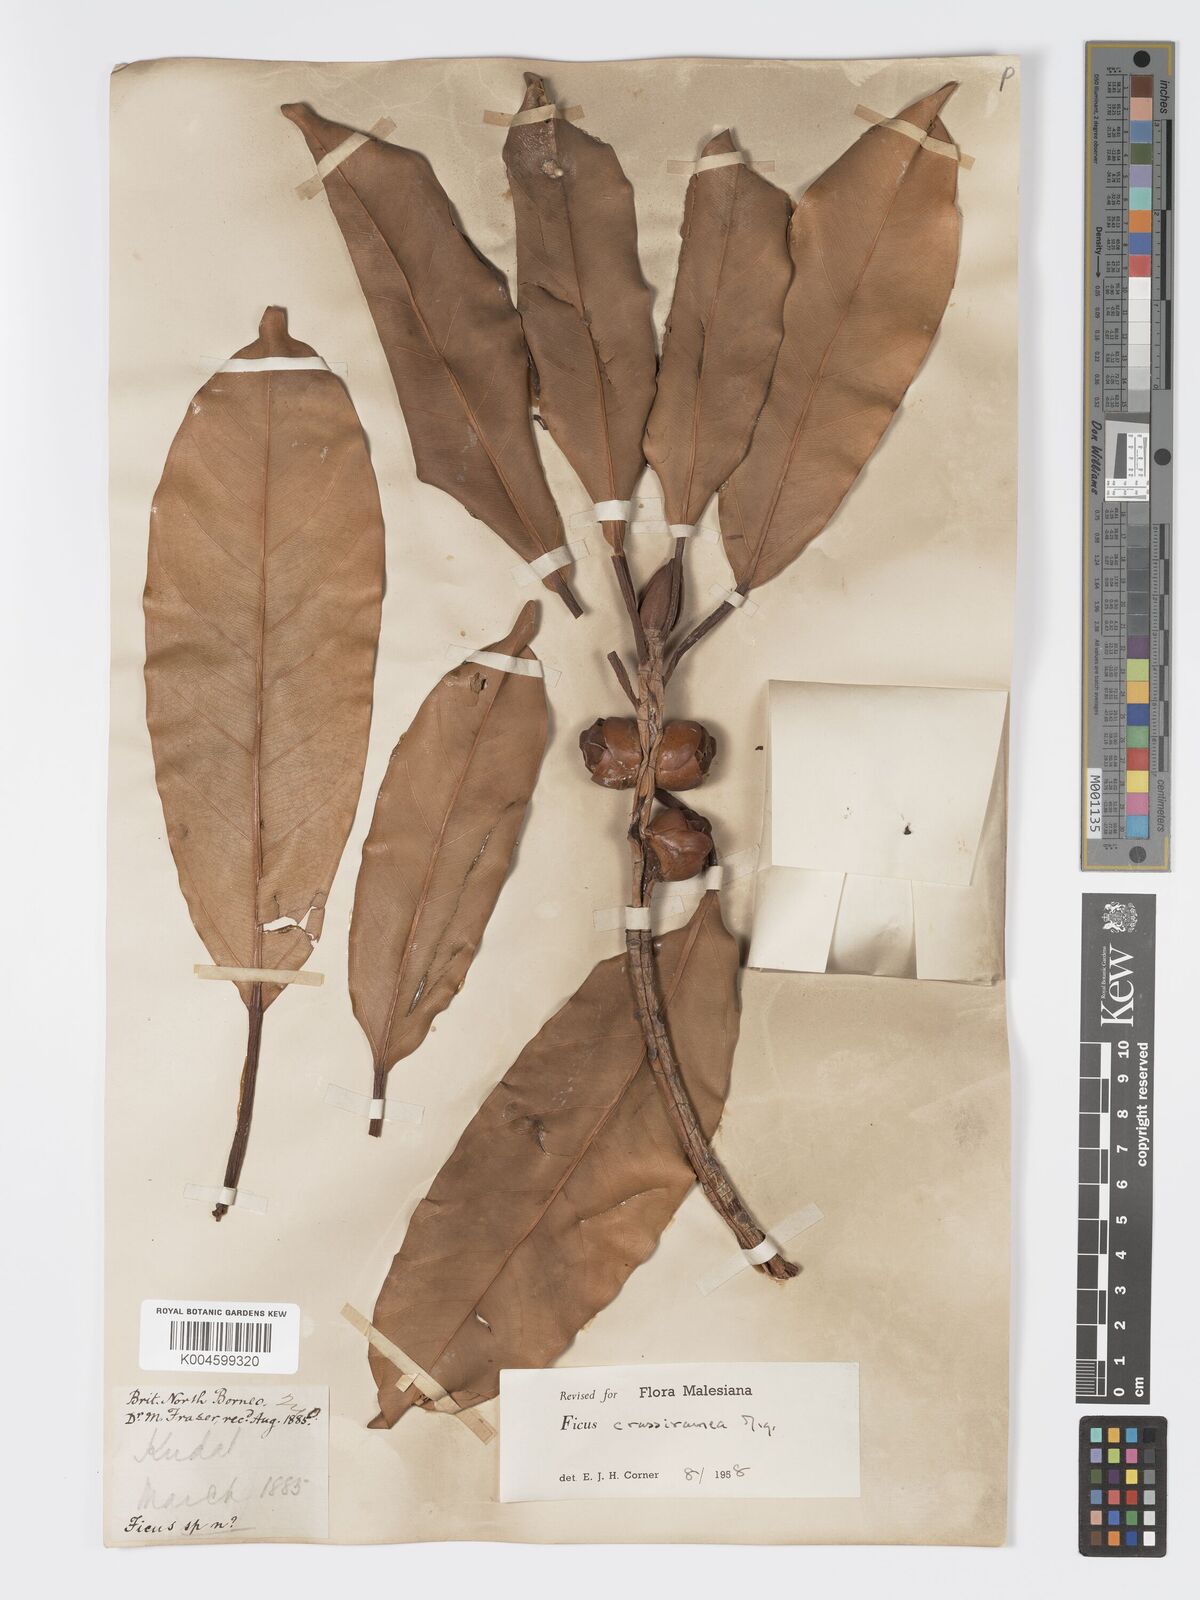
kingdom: Plantae
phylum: Tracheophyta
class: Magnoliopsida
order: Rosales
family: Moraceae
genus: Ficus
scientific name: Ficus crassiramea
